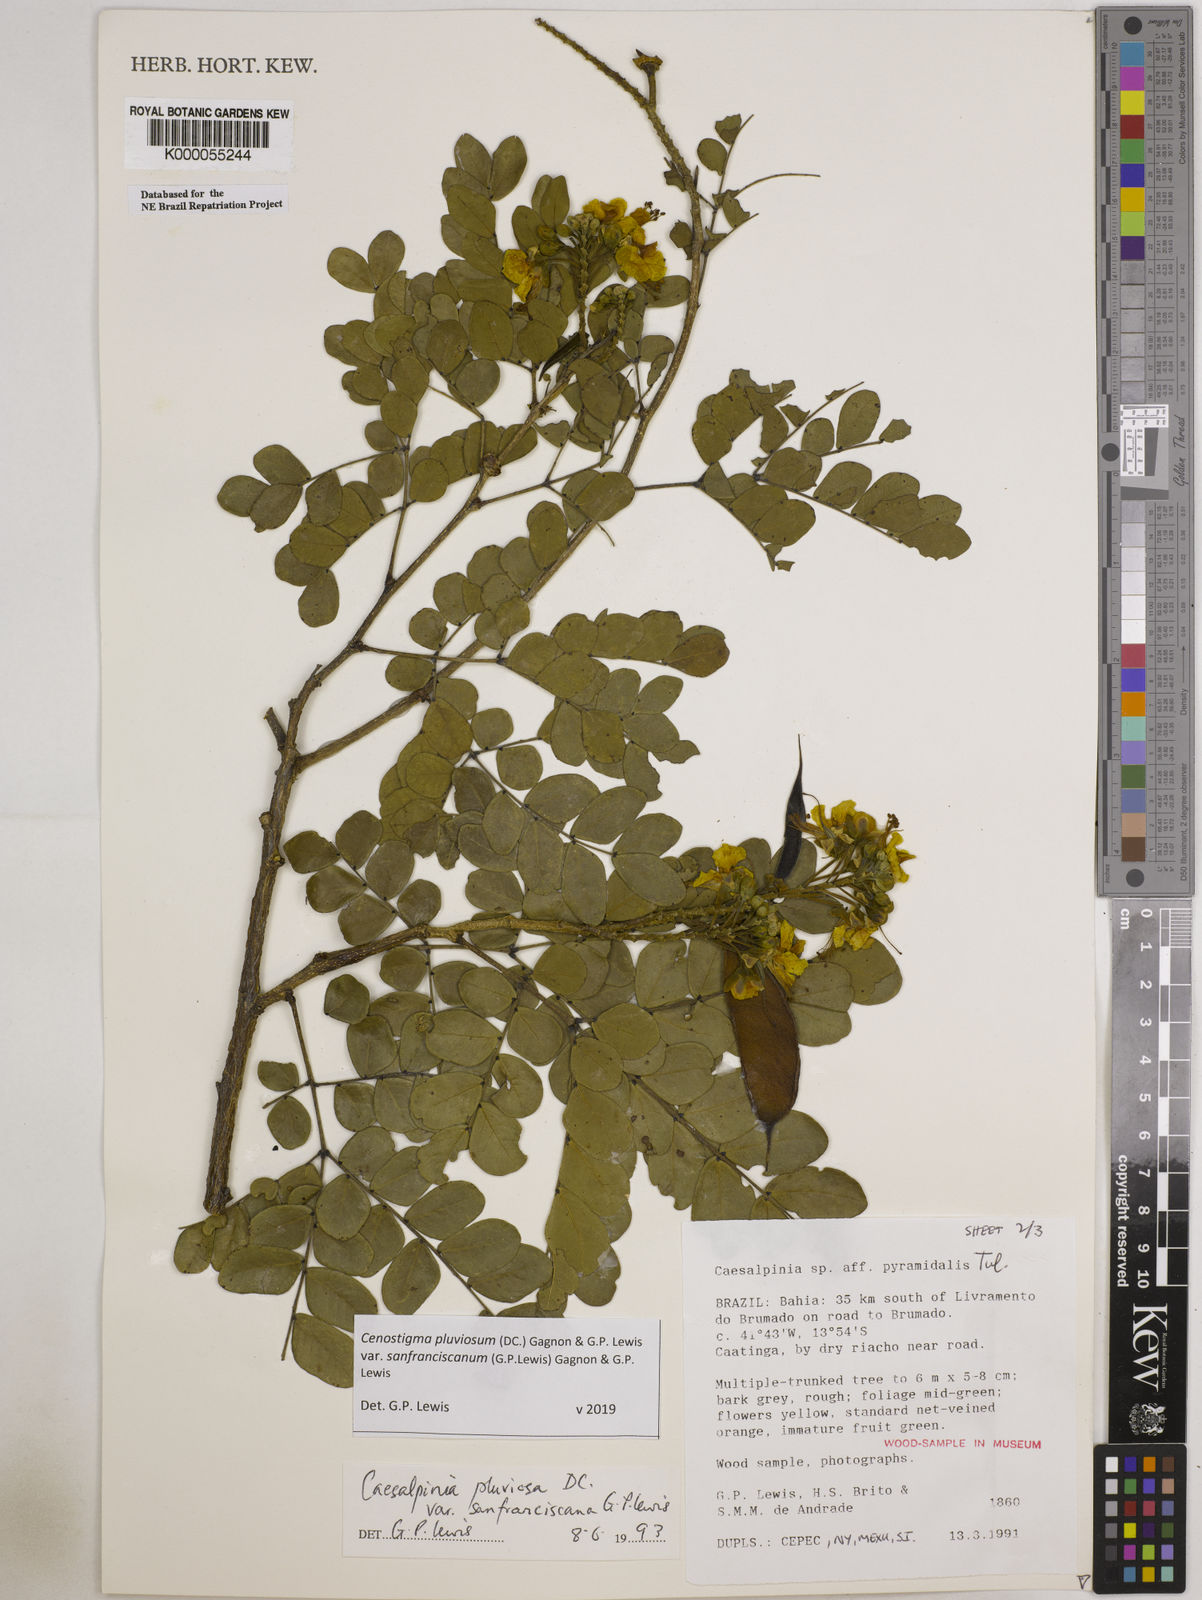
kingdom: Plantae
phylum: Tracheophyta
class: Magnoliopsida
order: Fabales
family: Fabaceae
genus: Cenostigma
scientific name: Cenostigma pluviosum
